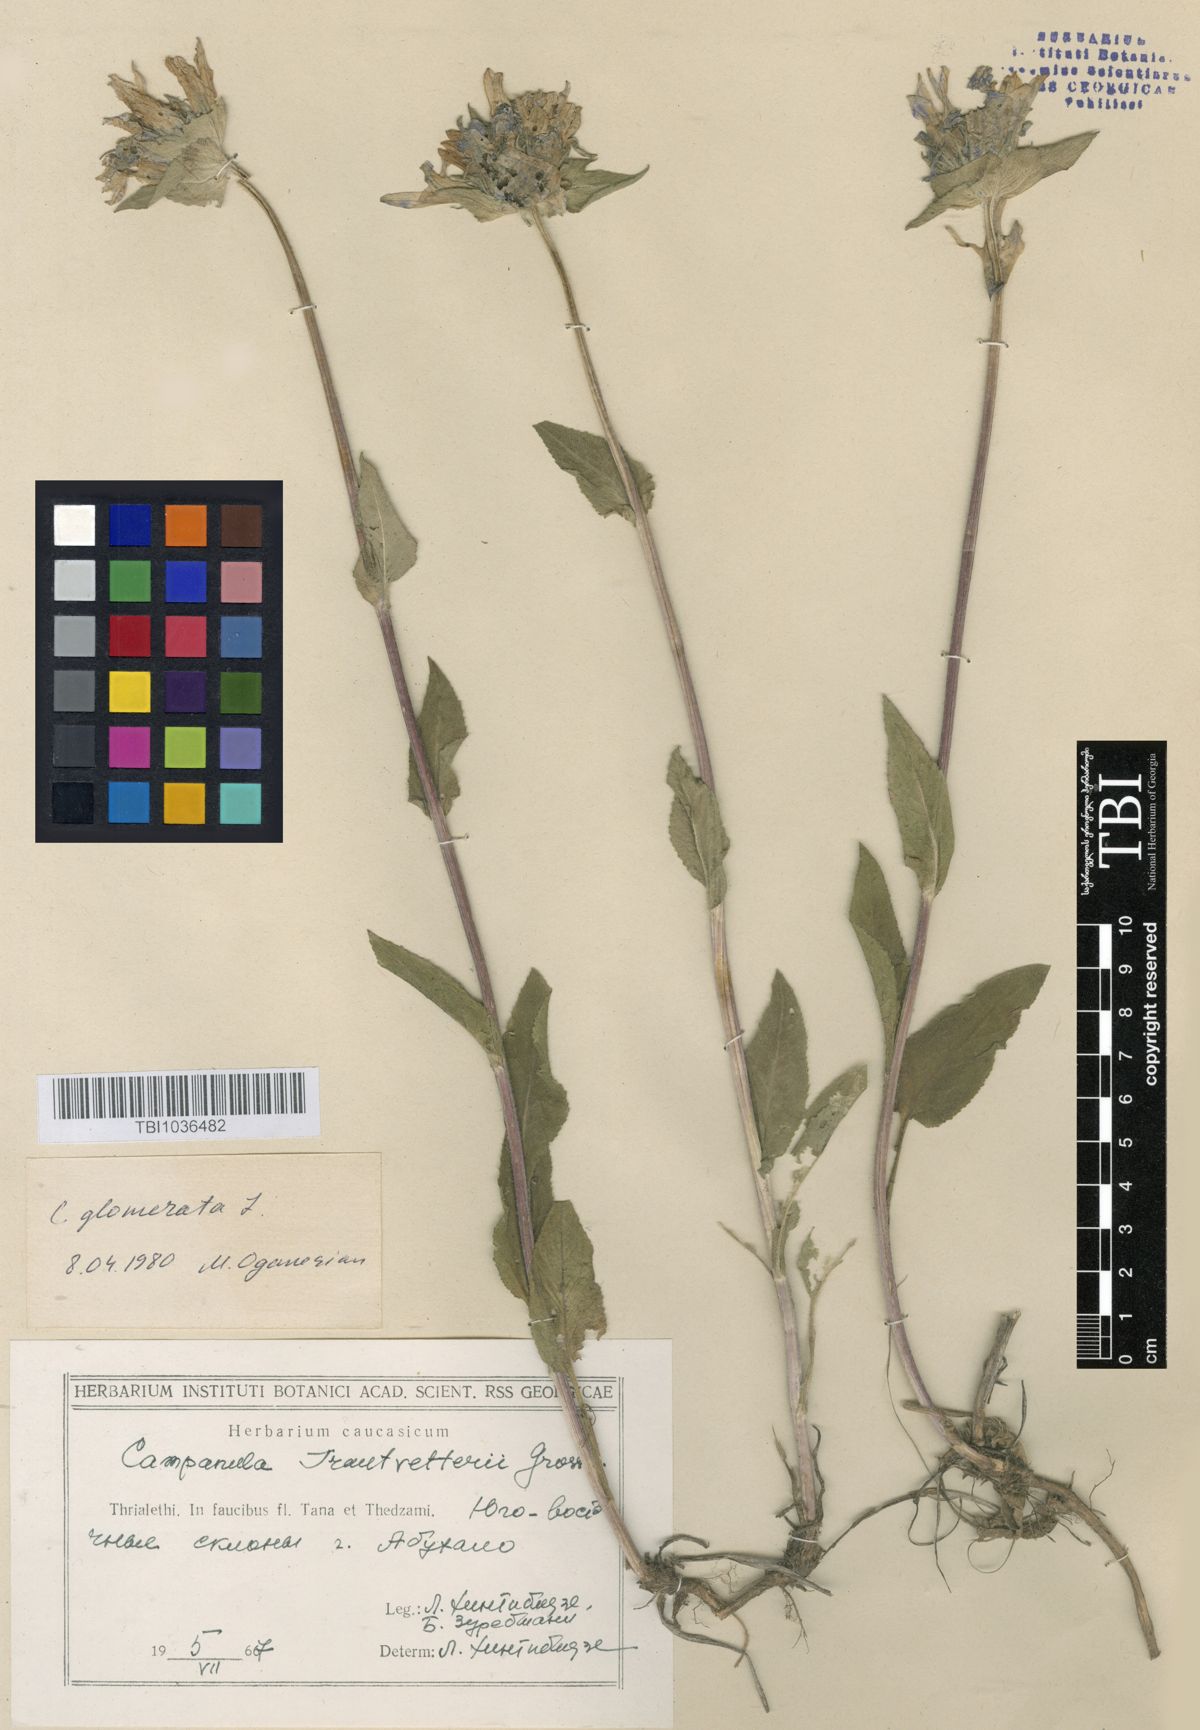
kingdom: Plantae
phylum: Tracheophyta
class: Magnoliopsida
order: Asterales
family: Campanulaceae
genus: Campanula
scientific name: Campanula glomerata
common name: Clustered bellflower
